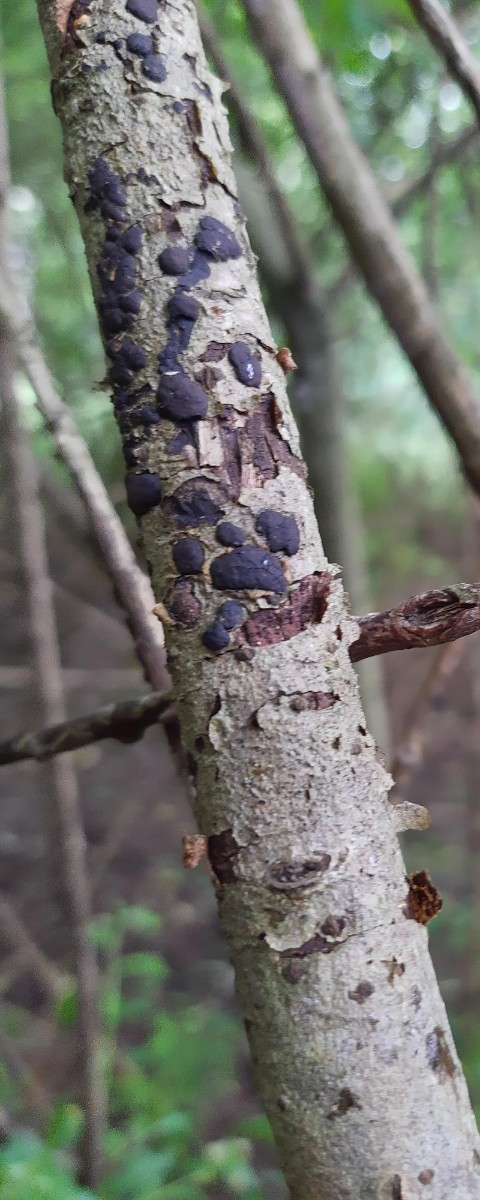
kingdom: Fungi
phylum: Ascomycota
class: Sordariomycetes
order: Xylariales
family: Diatrypaceae
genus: Diatrype
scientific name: Diatrype bullata
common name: pile-kulskorpe
